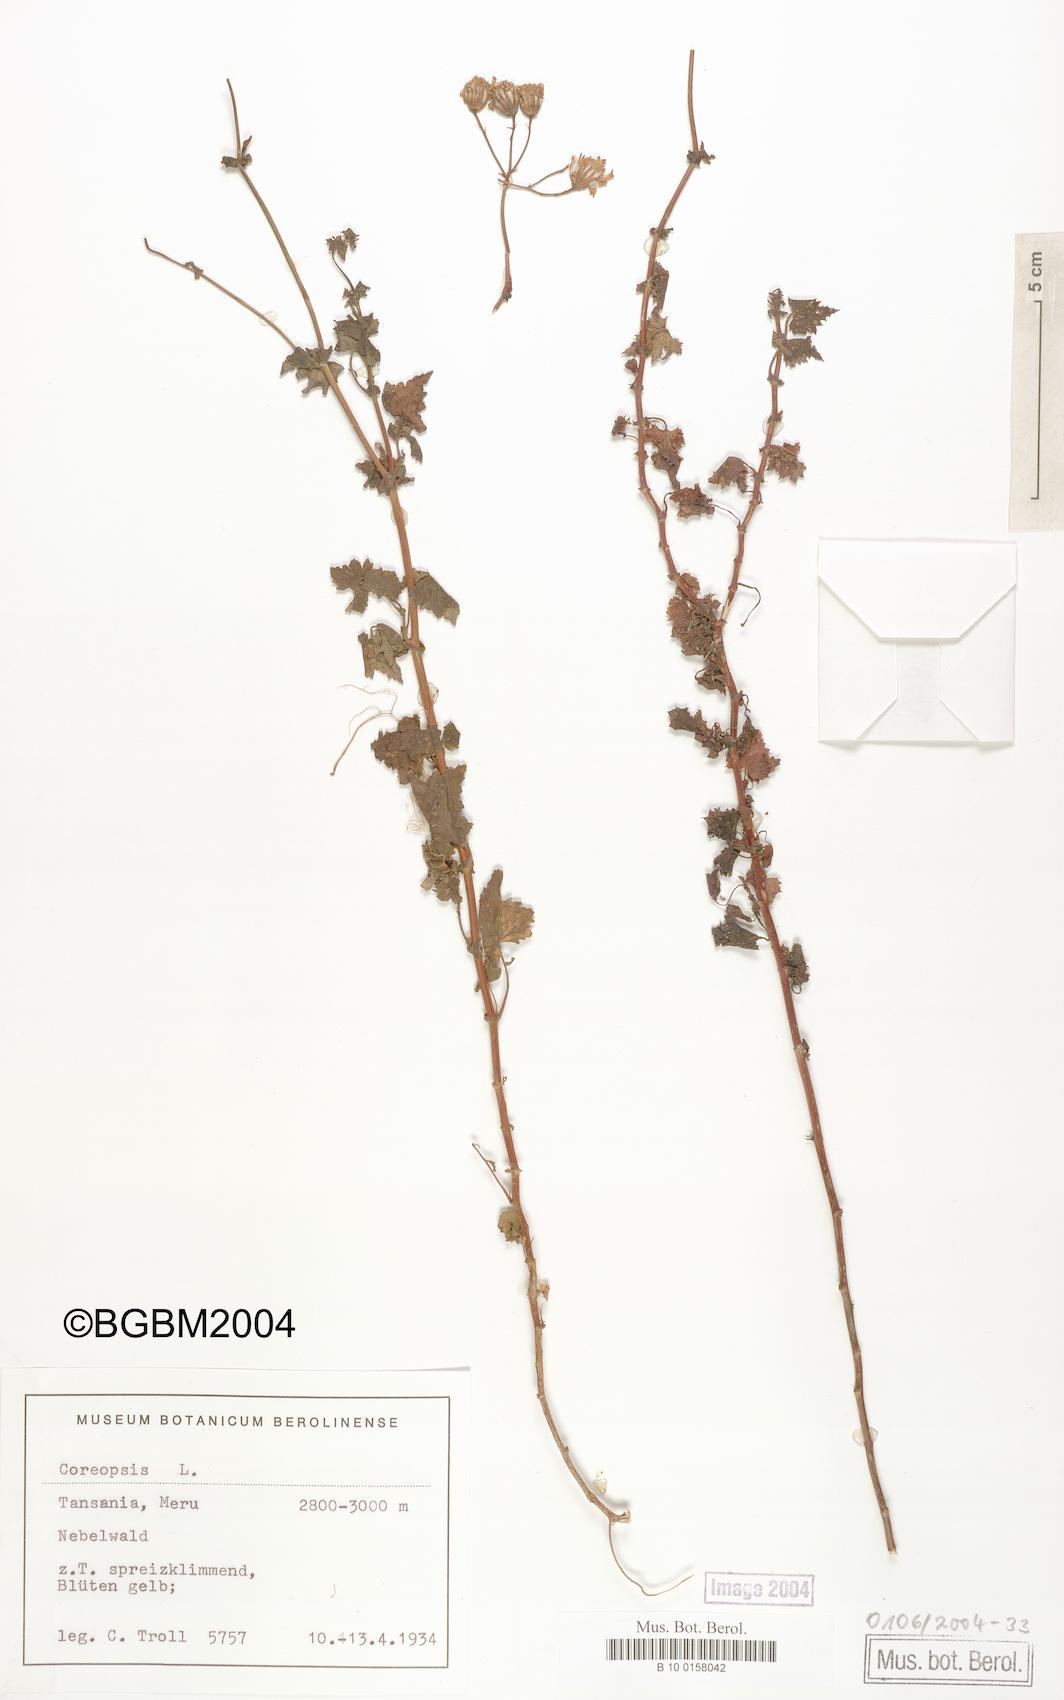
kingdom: Plantae
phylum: Tracheophyta
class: Magnoliopsida
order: Asterales
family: Asteraceae
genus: Coreopsis
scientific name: Coreopsis
